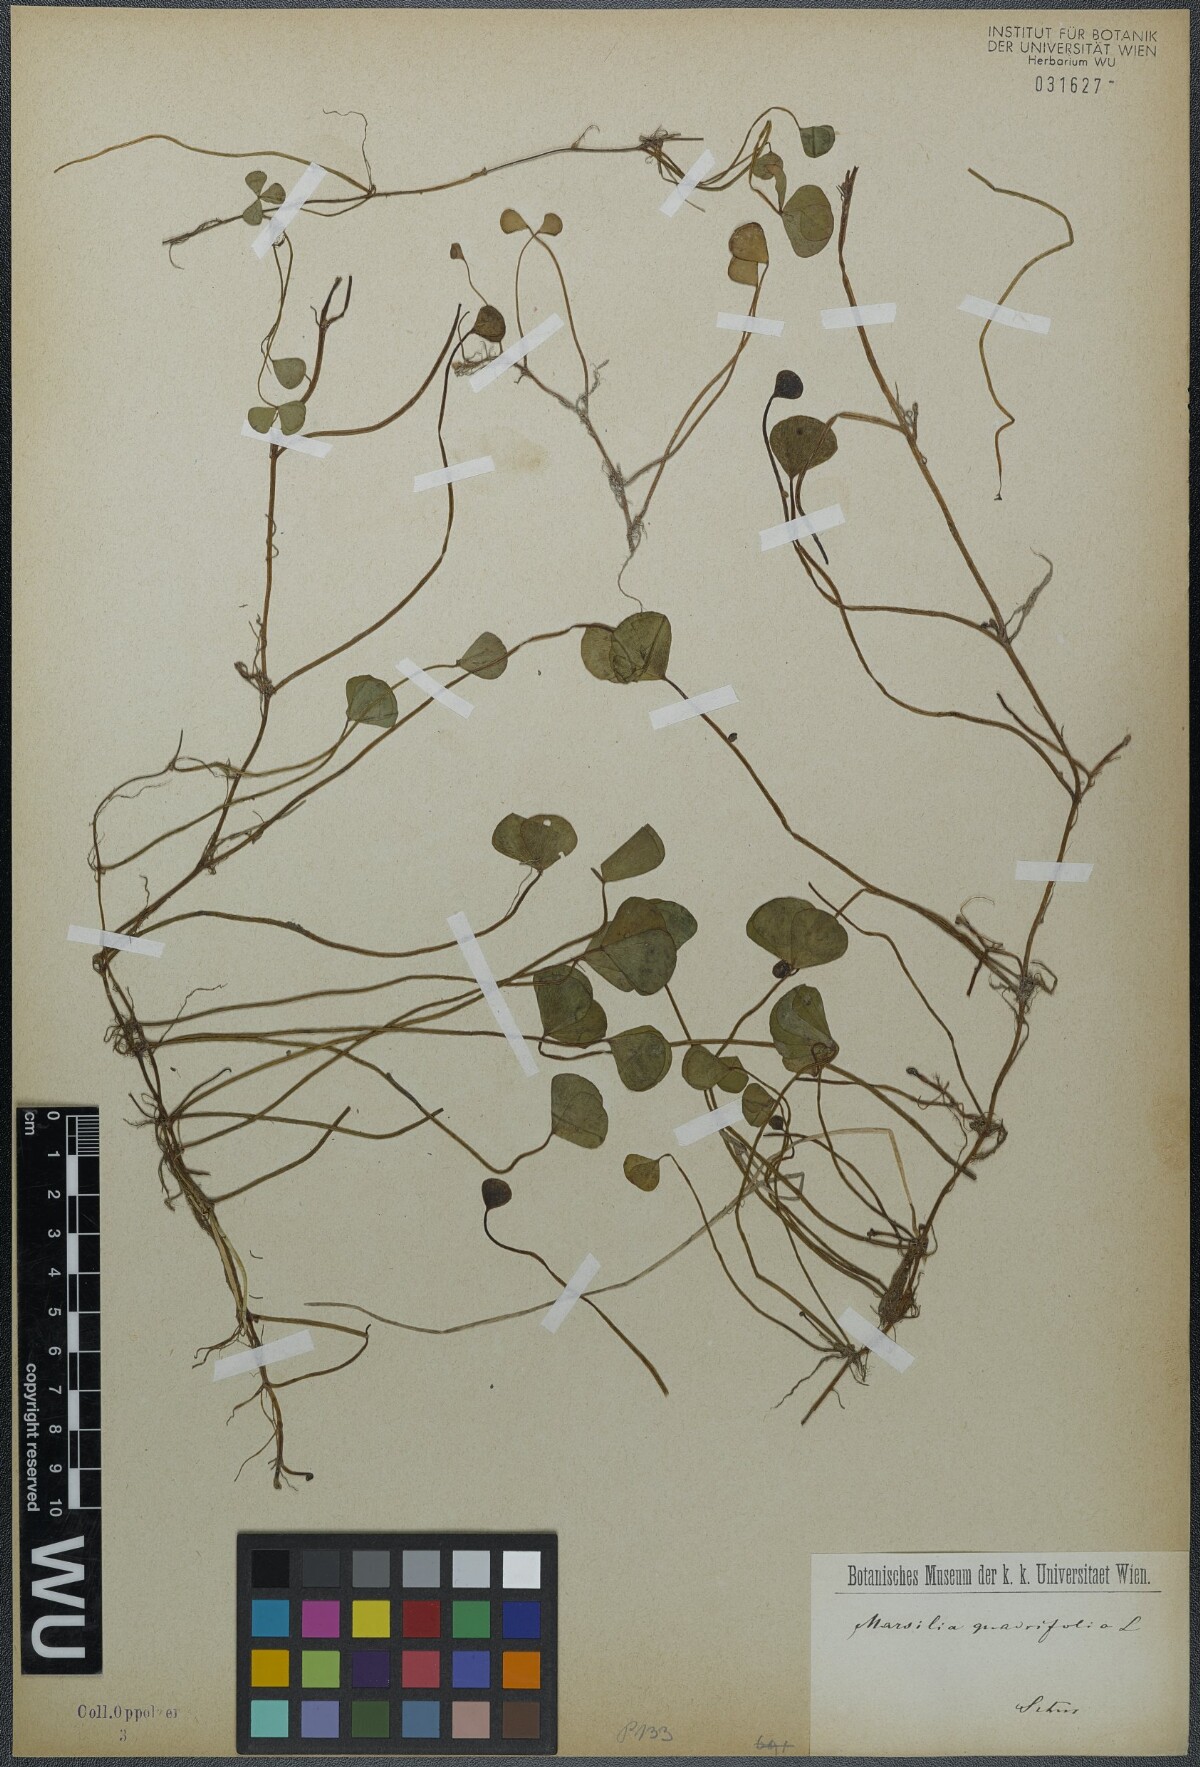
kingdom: Plantae
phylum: Tracheophyta
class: Polypodiopsida
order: Salviniales
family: Marsileaceae
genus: Marsilea
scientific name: Marsilea quadrifolia
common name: Water shamrock
